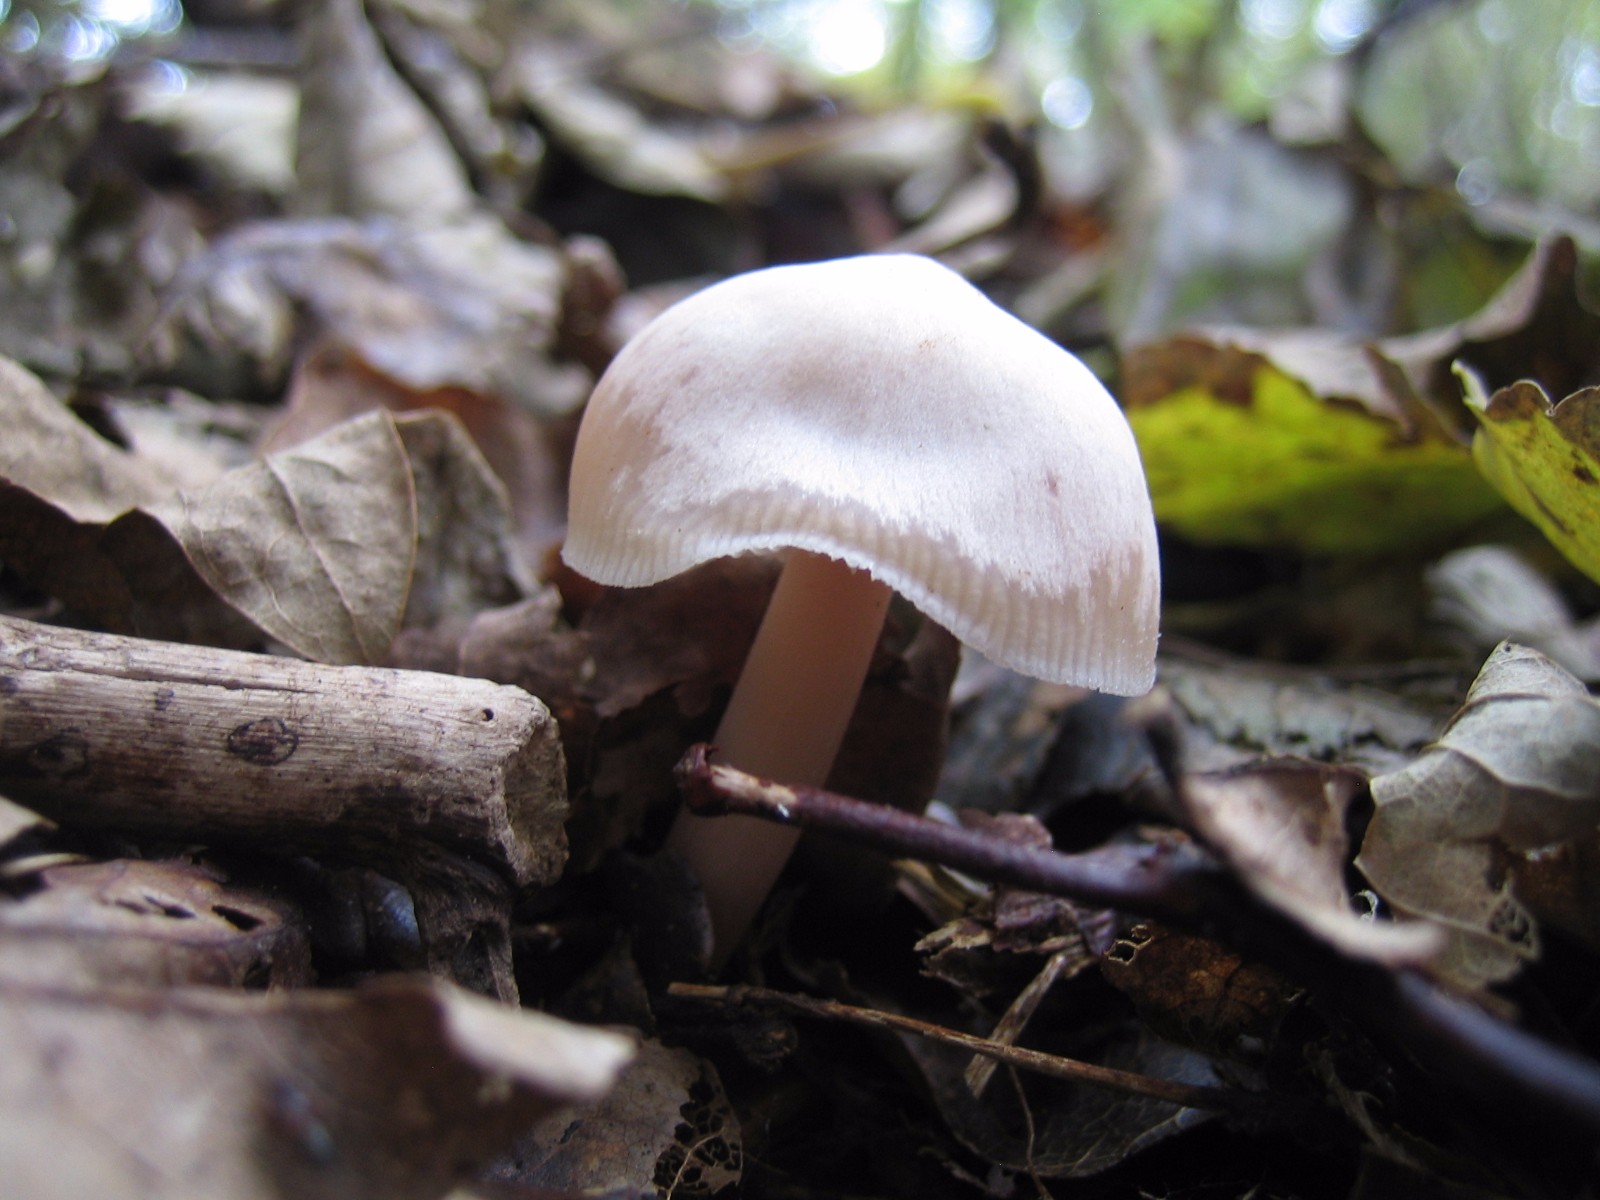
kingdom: Fungi
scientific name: Fungi
